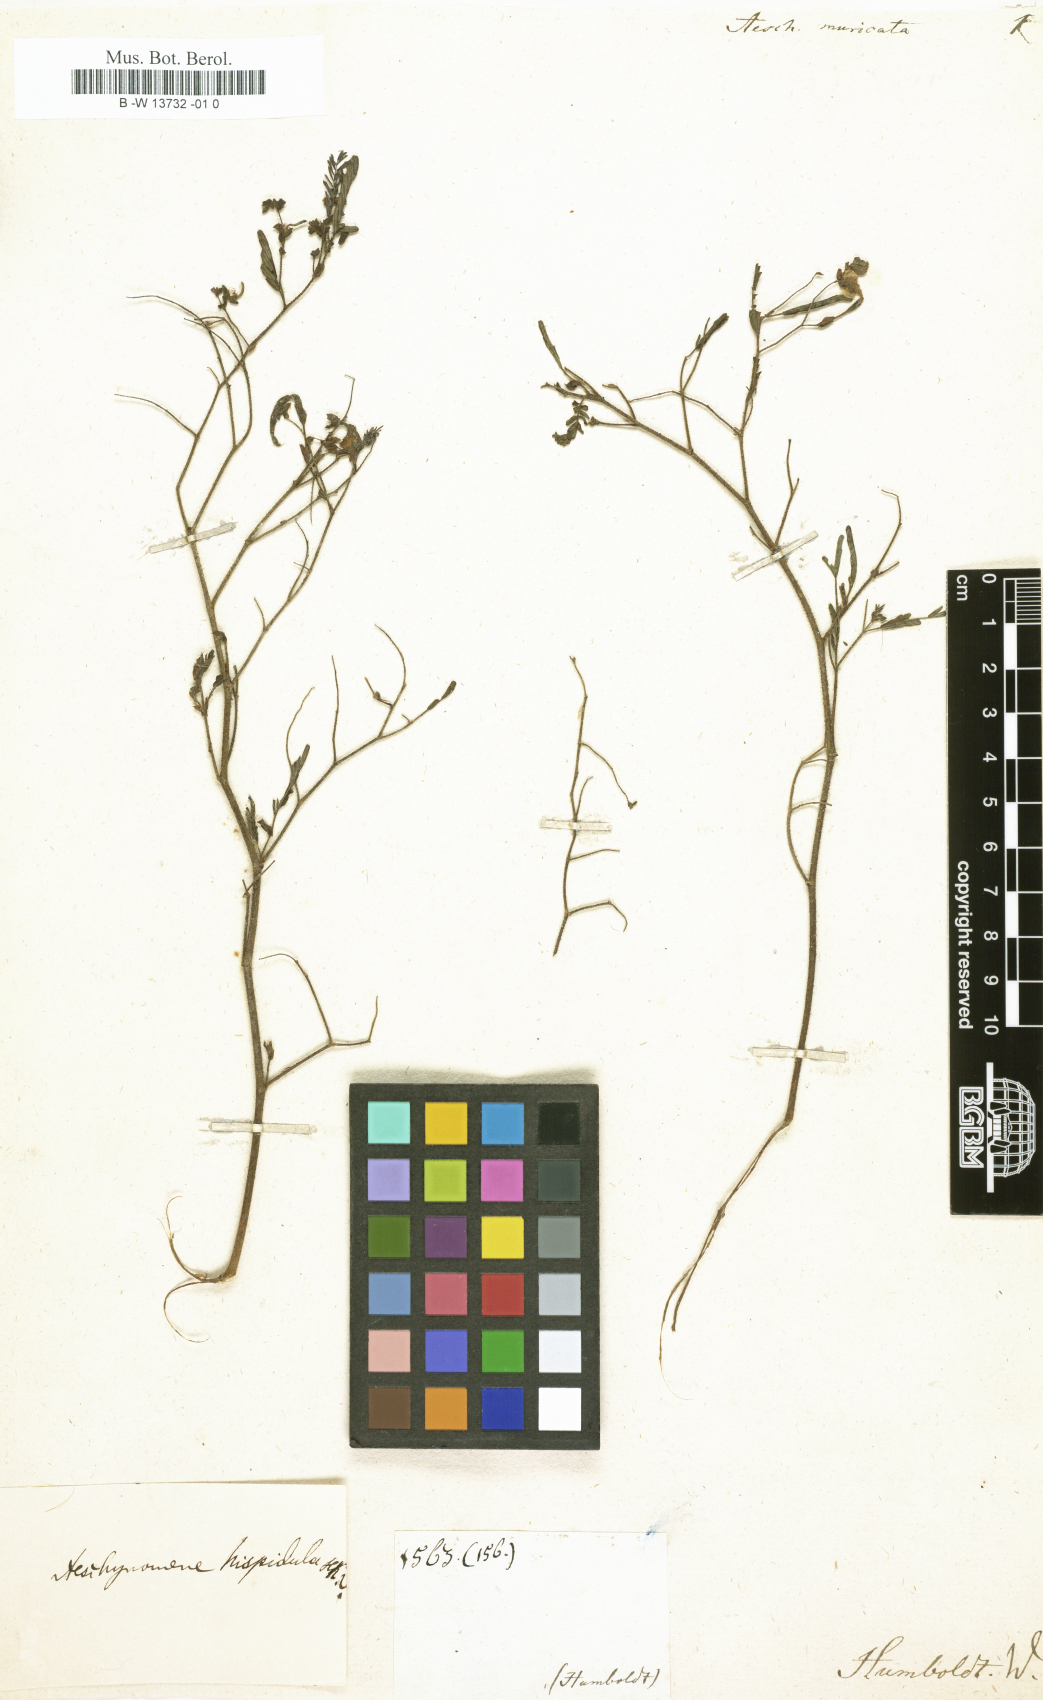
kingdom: Plantae
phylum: Tracheophyta
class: Magnoliopsida
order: Fabales
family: Fabaceae
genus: Adesmia
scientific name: Adesmia muricata
